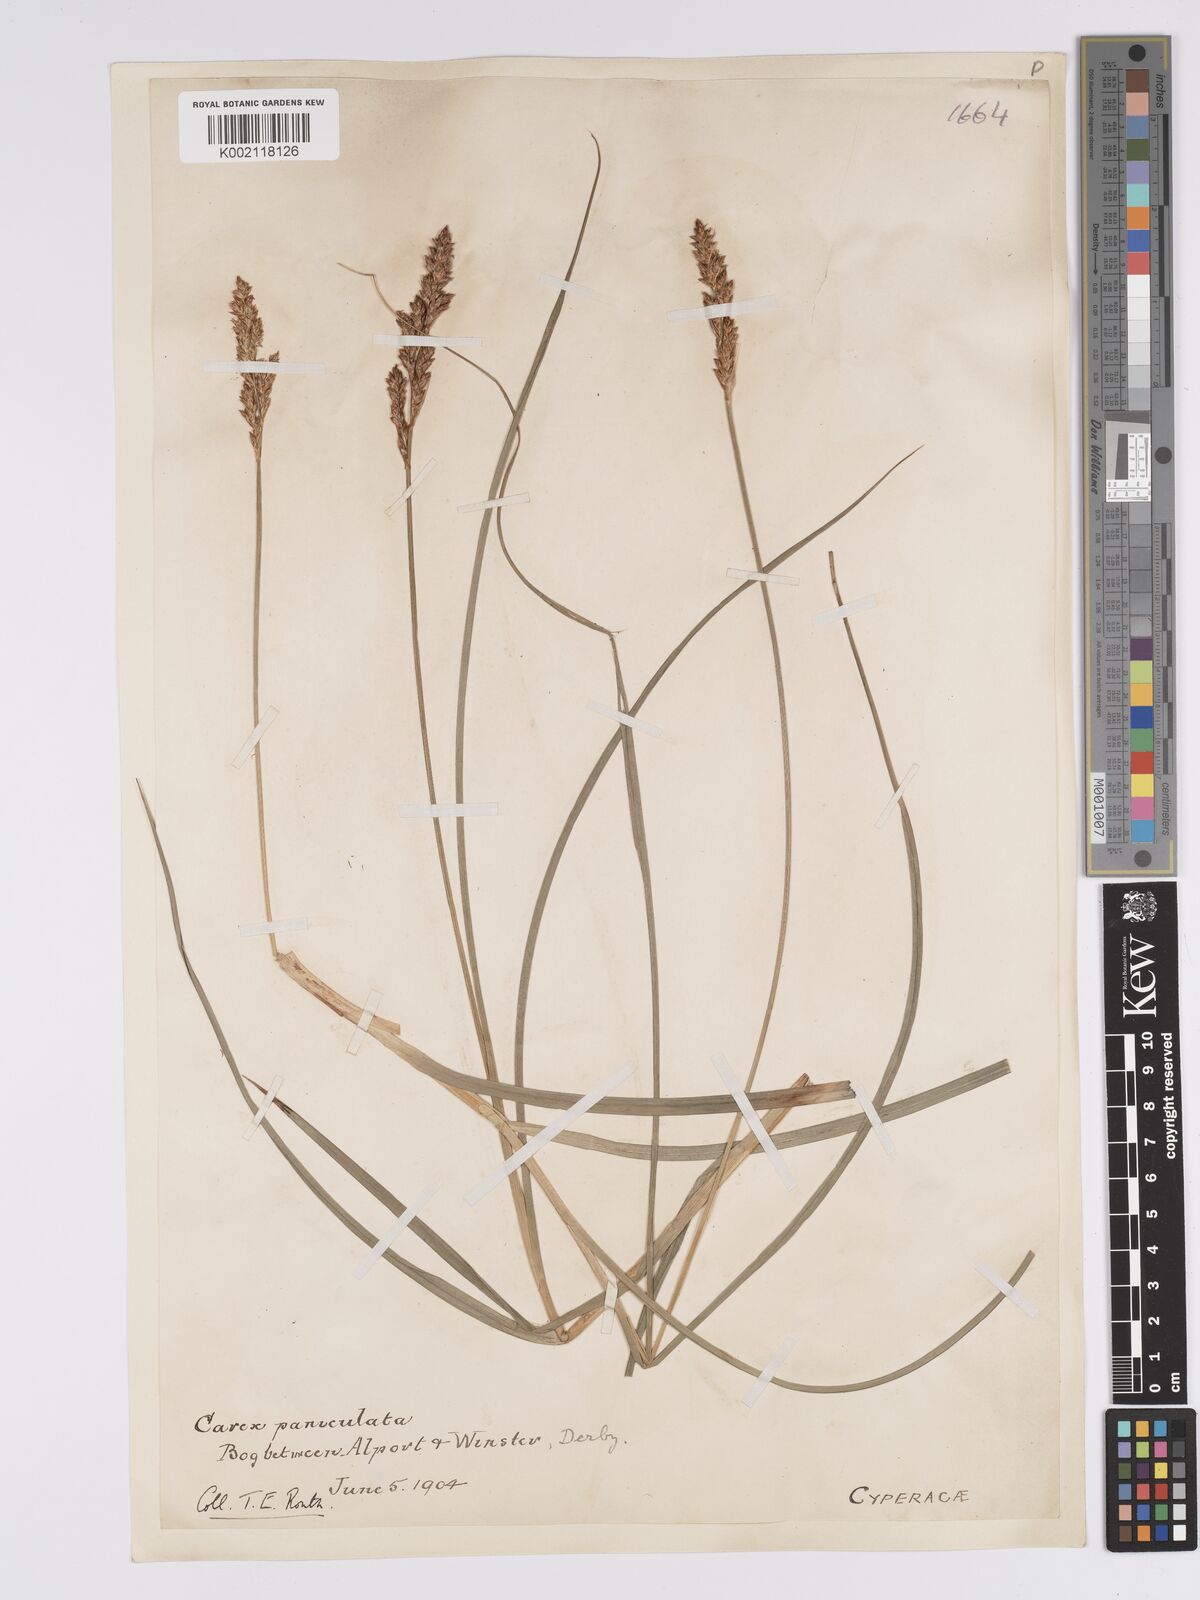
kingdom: Plantae
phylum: Tracheophyta
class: Liliopsida
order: Poales
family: Cyperaceae
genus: Carex
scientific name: Carex paniculata
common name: Greater tussock-sedge
